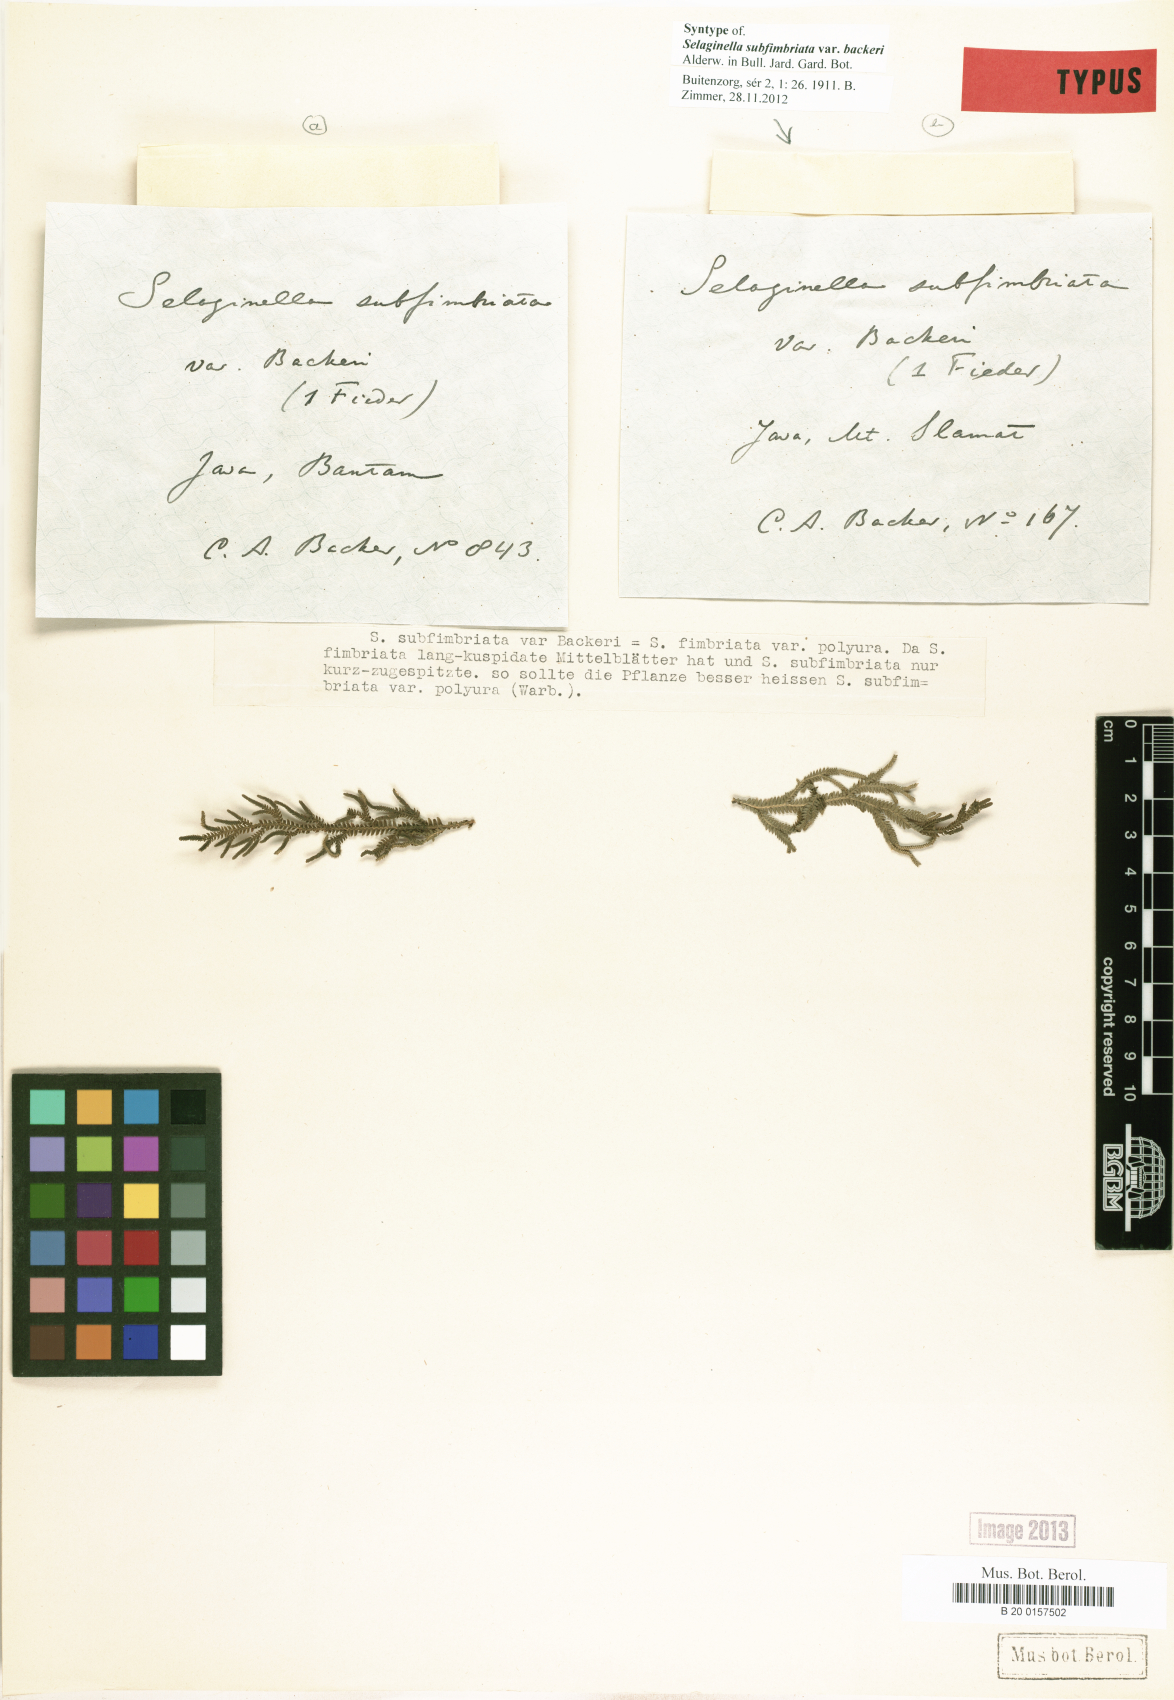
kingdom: Plantae
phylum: Tracheophyta
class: Lycopodiopsida
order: Selaginellales
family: Selaginellaceae
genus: Selaginella
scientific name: Selaginella ornata
